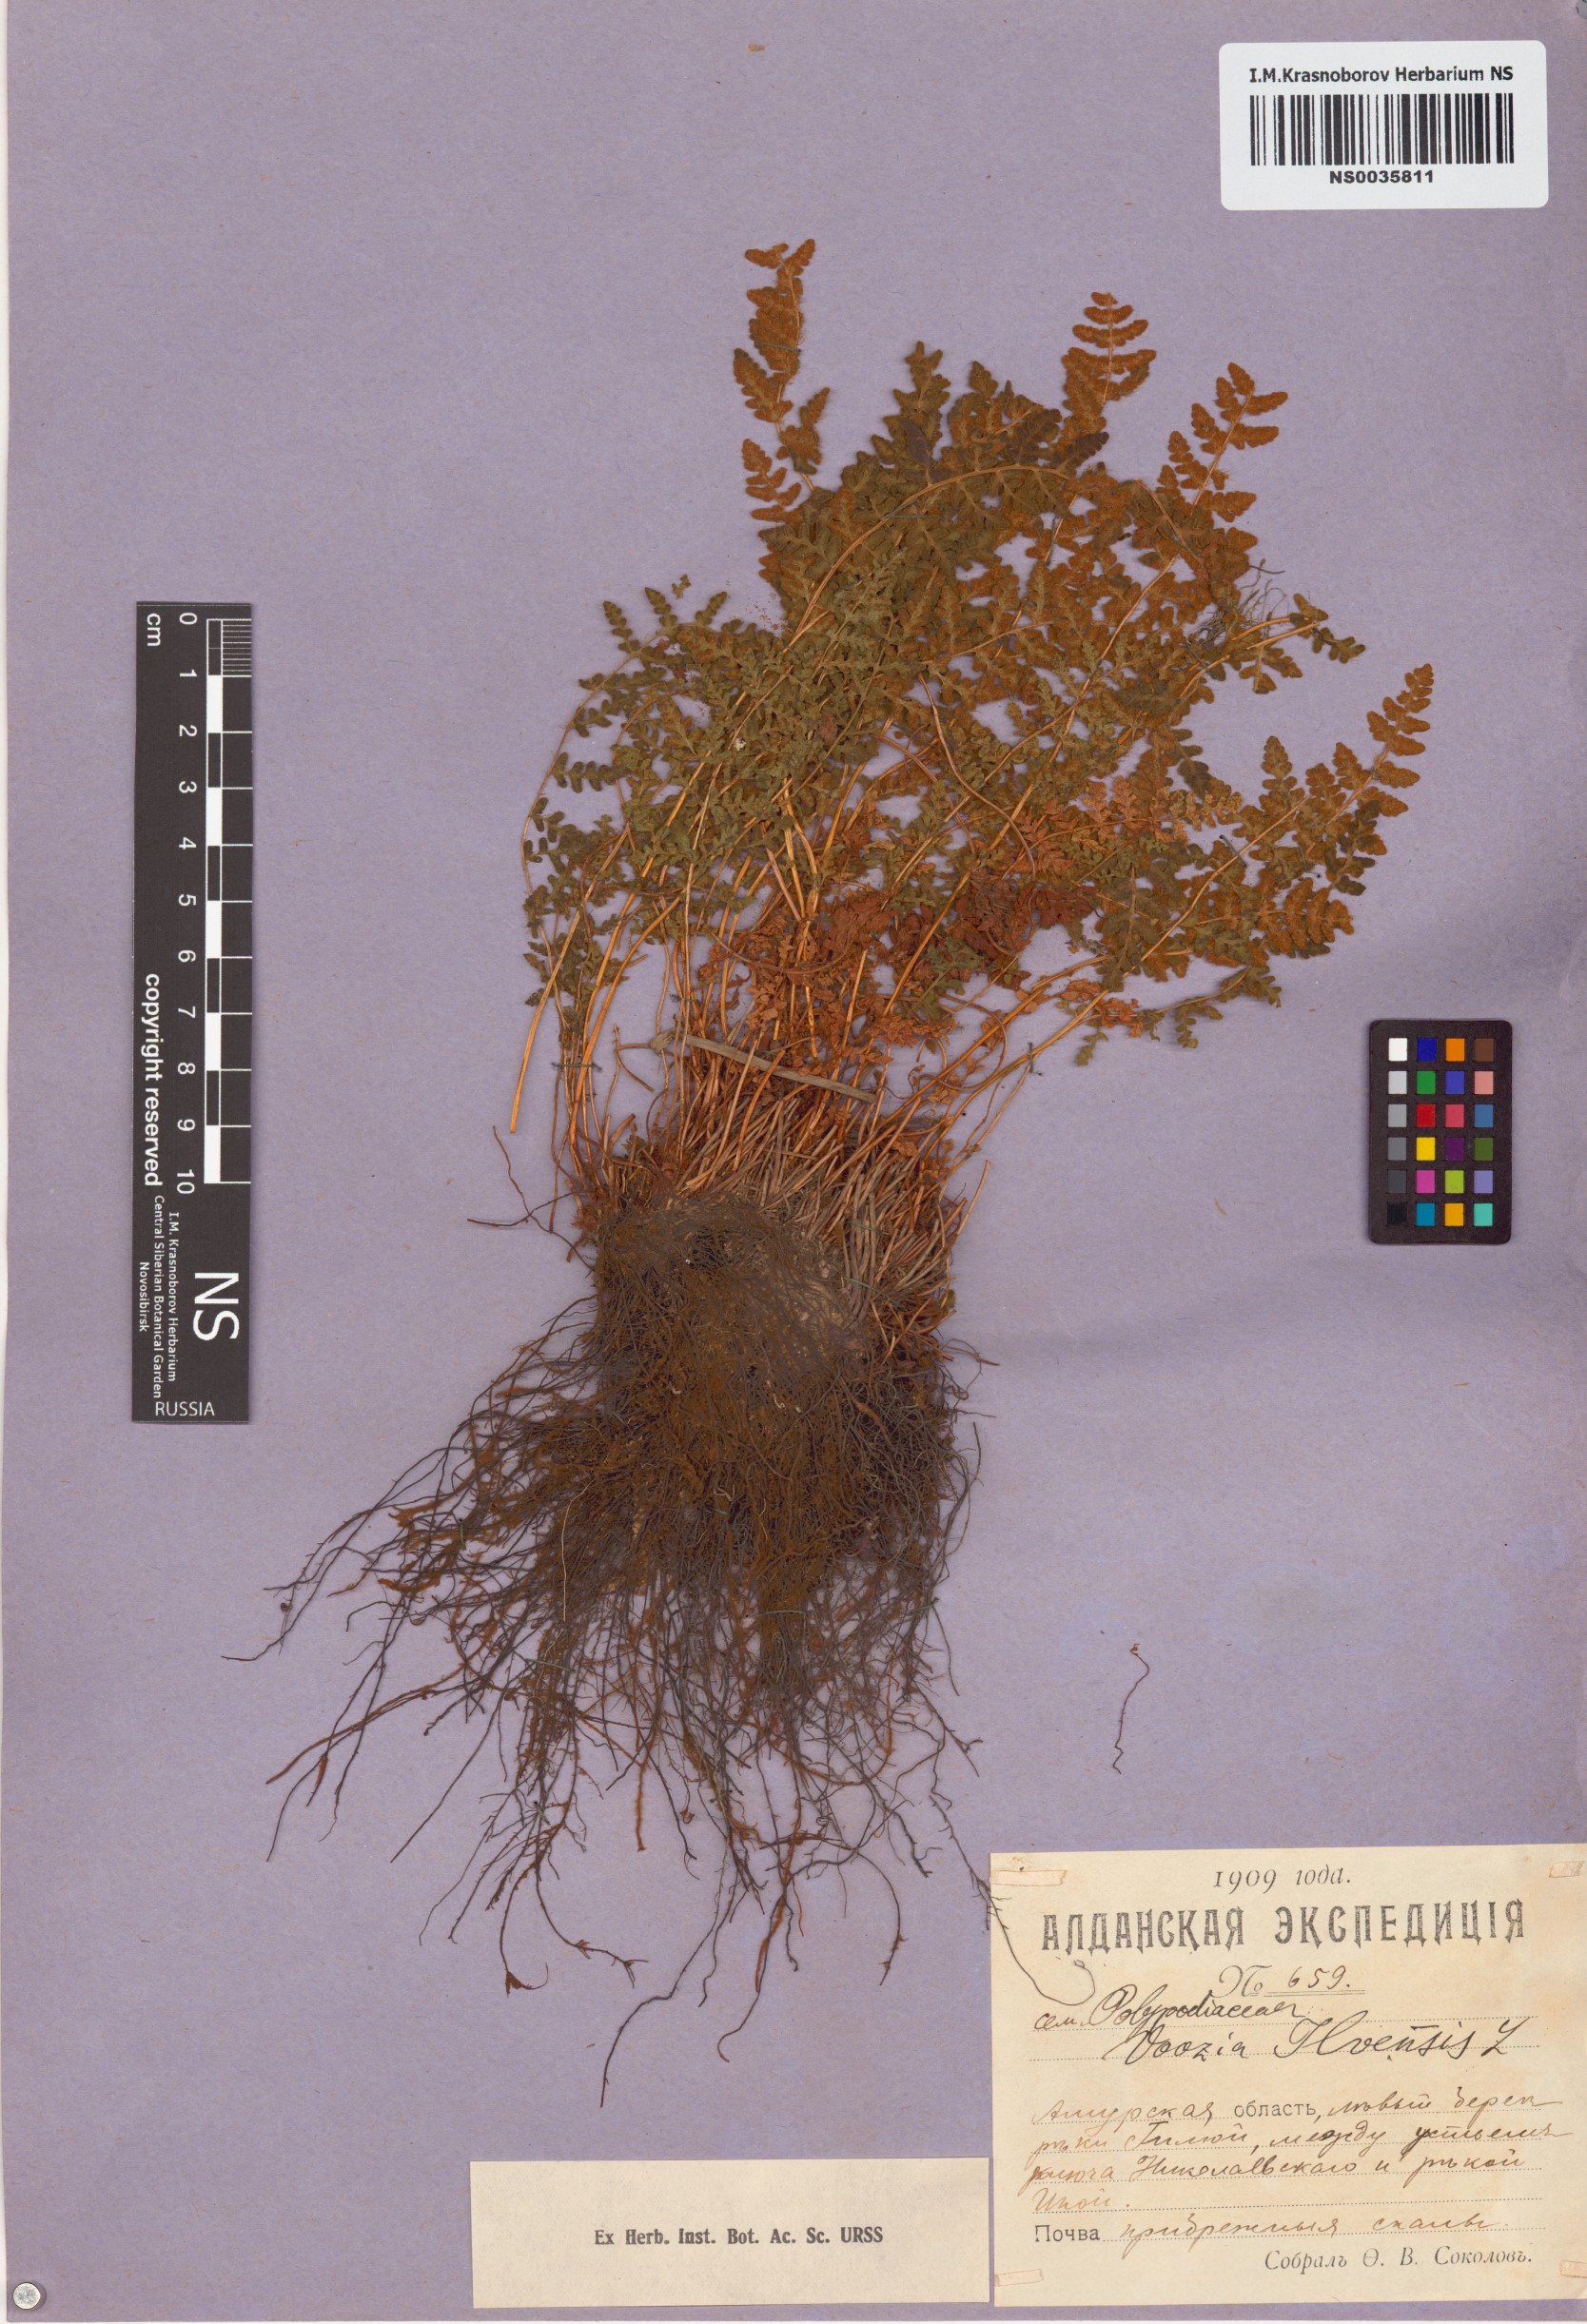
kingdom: Plantae
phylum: Tracheophyta
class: Polypodiopsida
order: Polypodiales
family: Woodsiaceae
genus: Woodsia
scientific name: Woodsia ilvensis
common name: Fragrant woodsia
